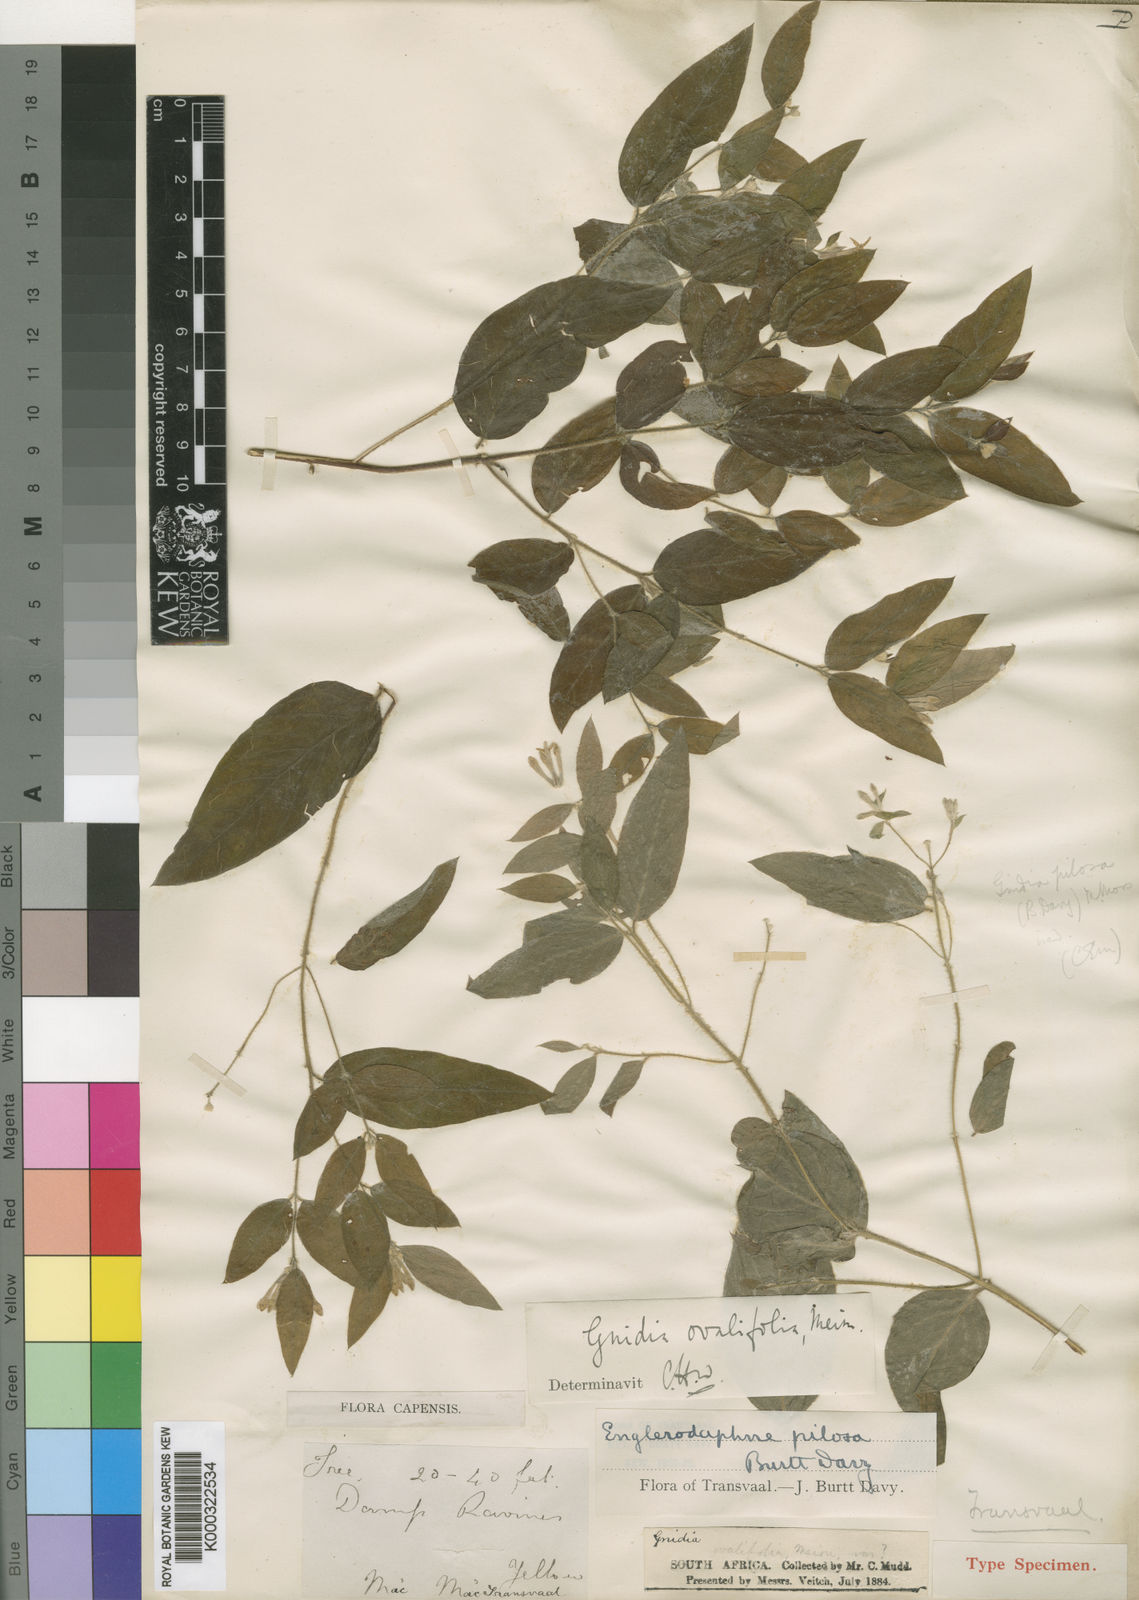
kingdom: Plantae
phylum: Tracheophyta
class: Magnoliopsida
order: Malvales
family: Thymelaeaceae
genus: Gnidia
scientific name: Gnidia
